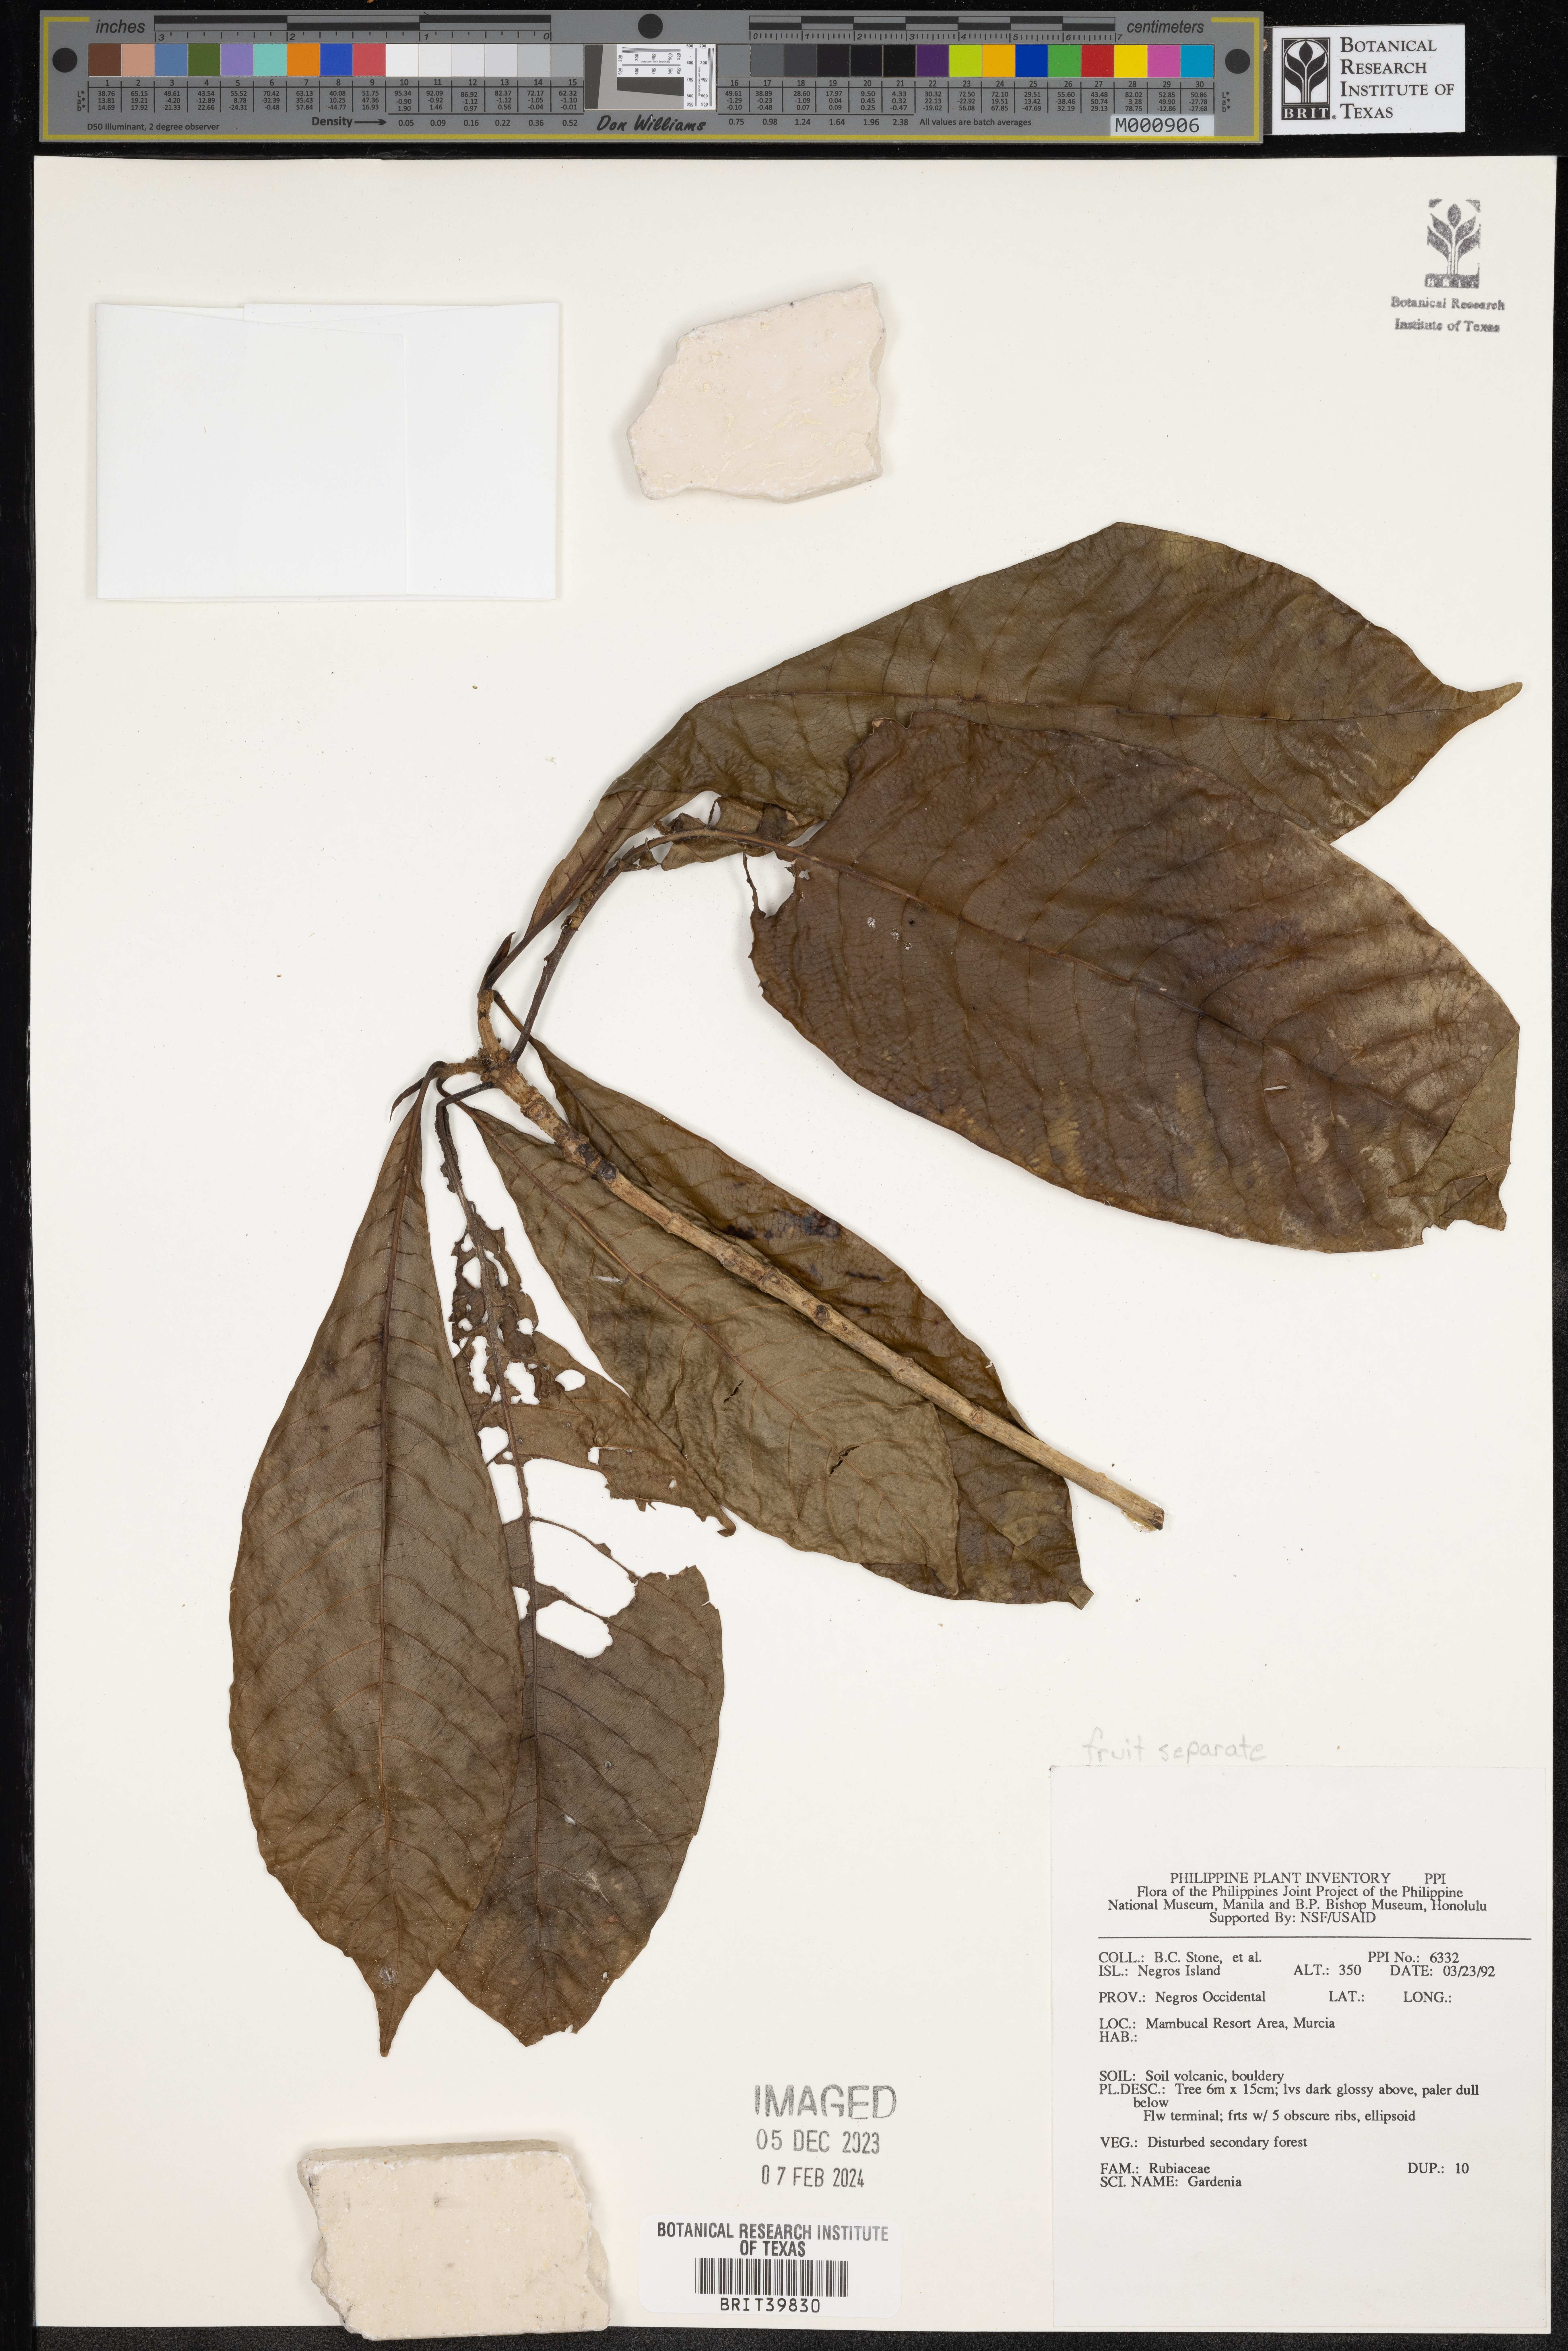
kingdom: Plantae
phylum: Tracheophyta
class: Magnoliopsida
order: Gentianales
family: Rubiaceae
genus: Gardenia
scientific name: Gardenia
